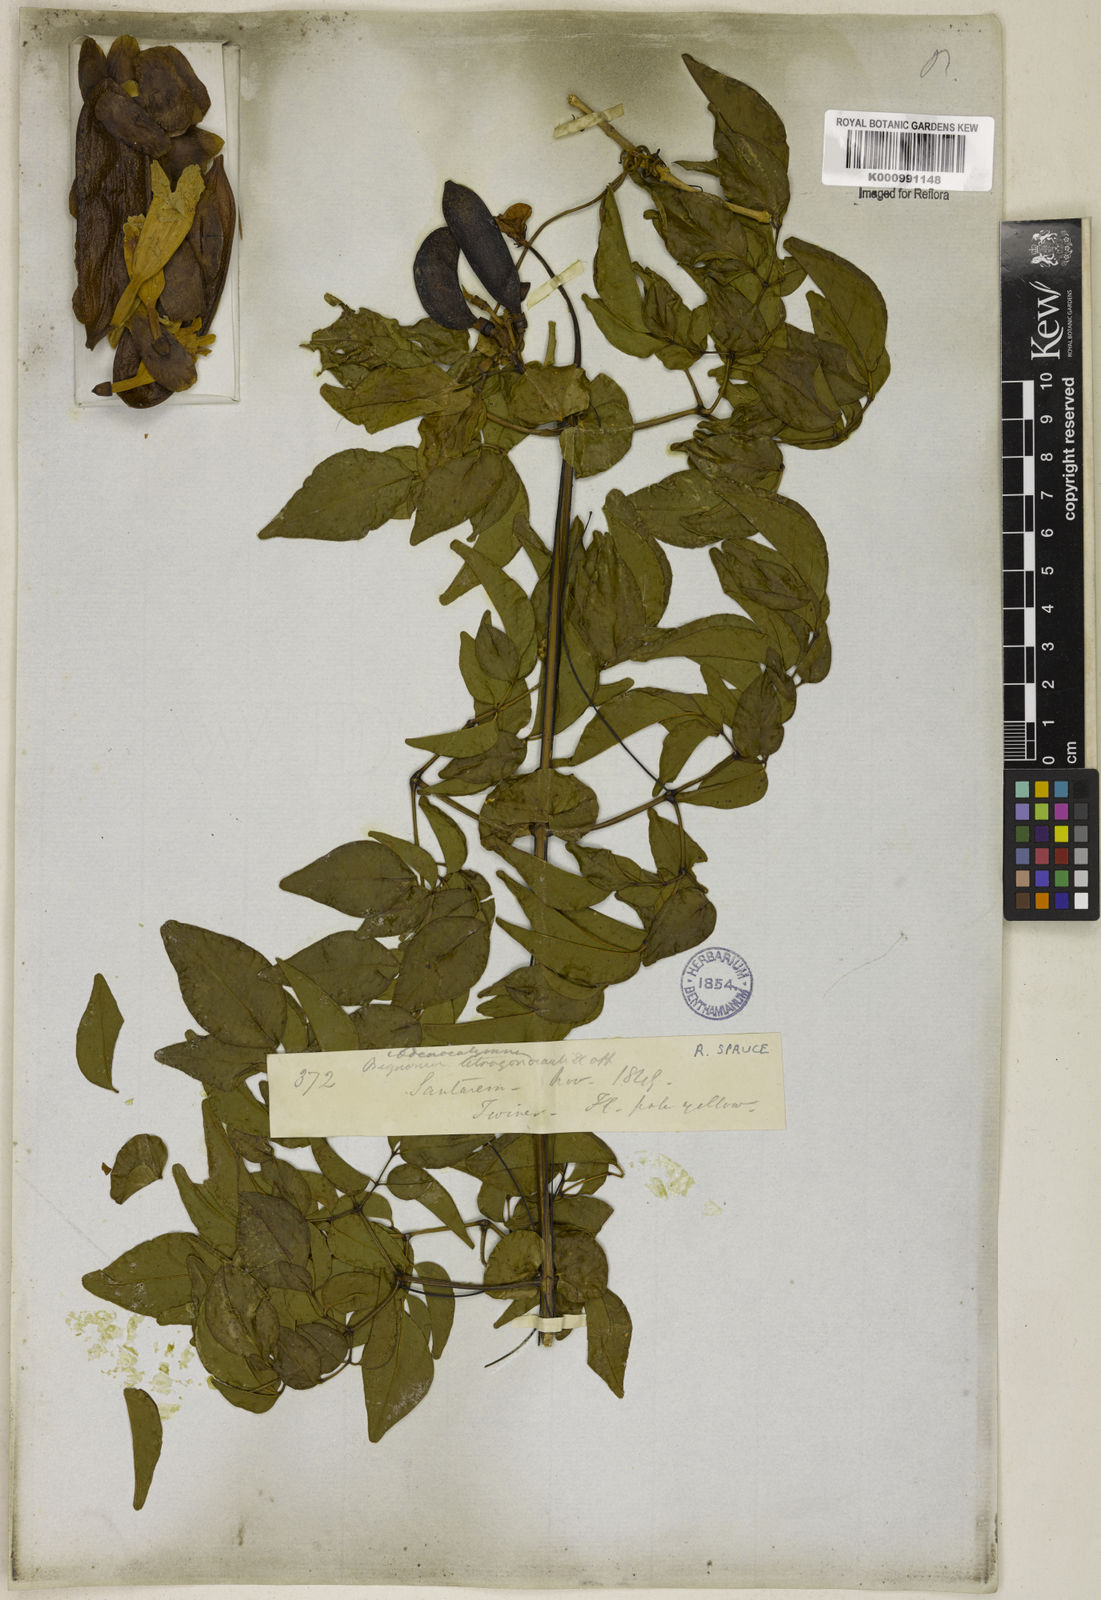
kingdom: Plantae
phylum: Tracheophyta
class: Magnoliopsida
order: Lamiales
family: Bignoniaceae
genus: Pleonotoma
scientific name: Pleonotoma jasminifolia
